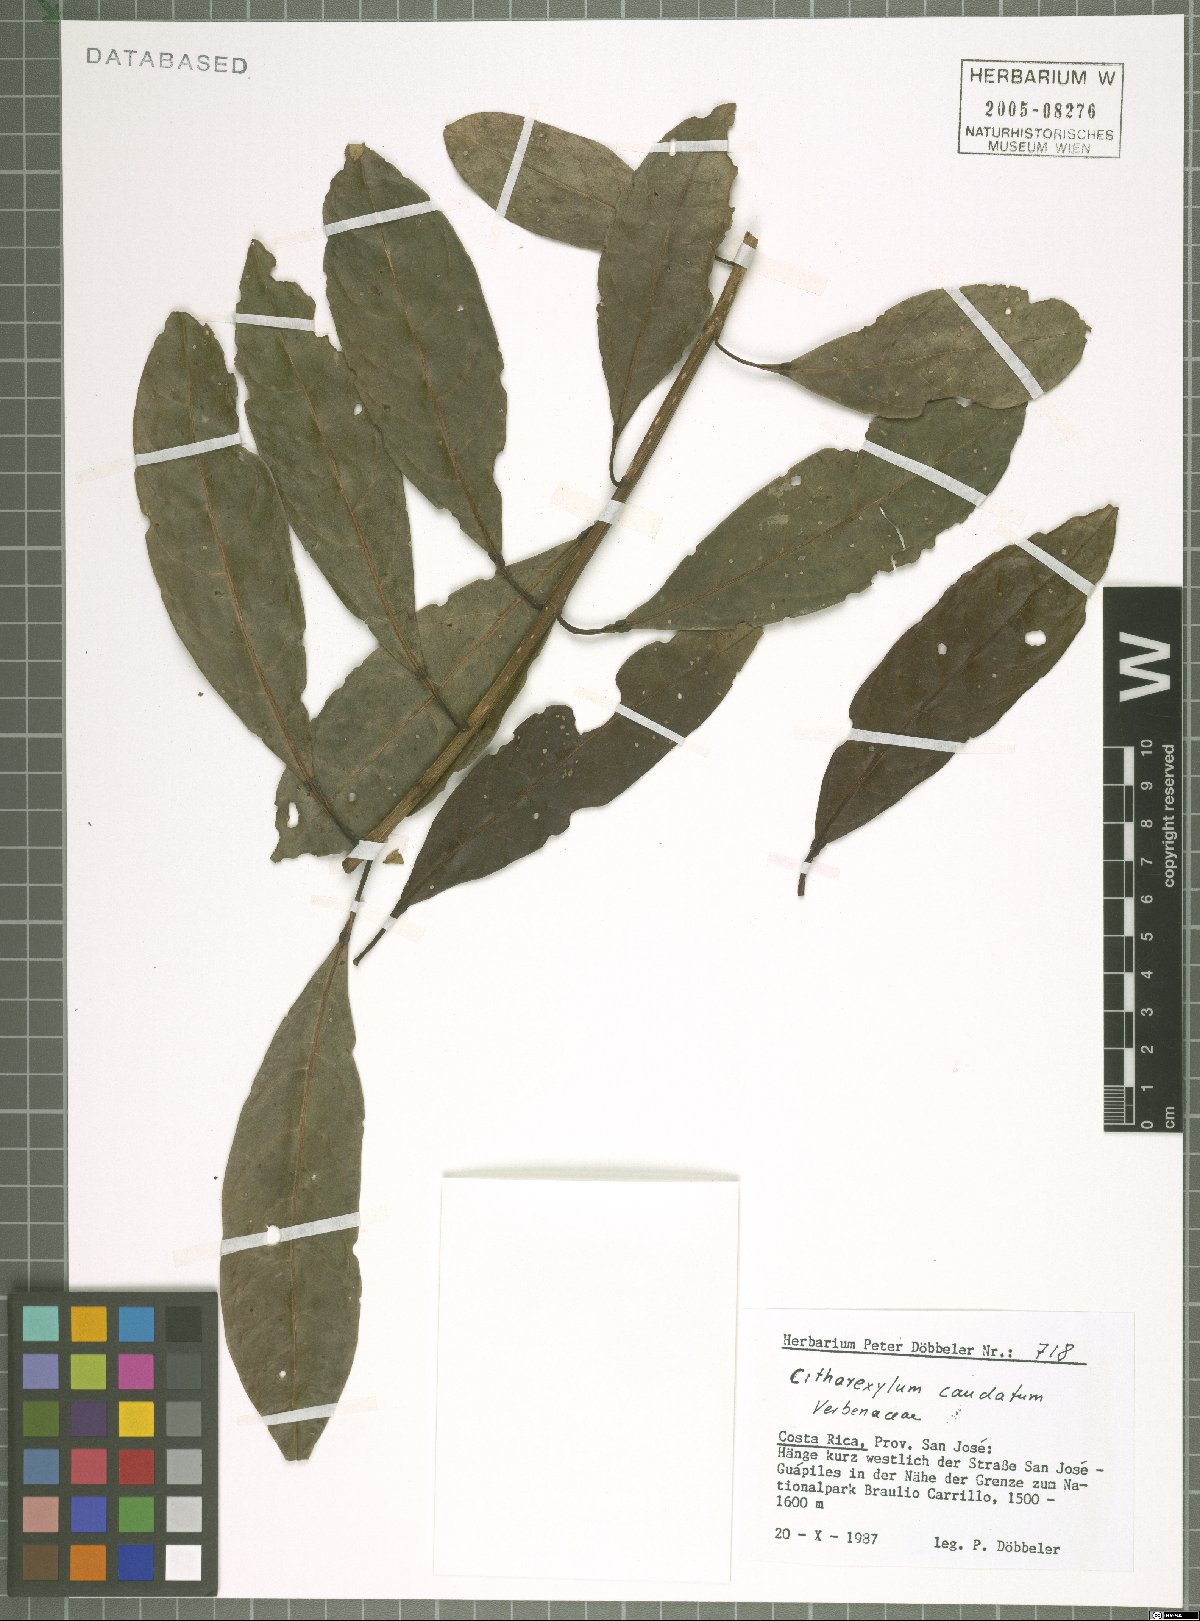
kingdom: Plantae
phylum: Tracheophyta
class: Magnoliopsida
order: Lamiales
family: Verbenaceae
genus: Citharexylum
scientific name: Citharexylum caudatum
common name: Fiddlewood
